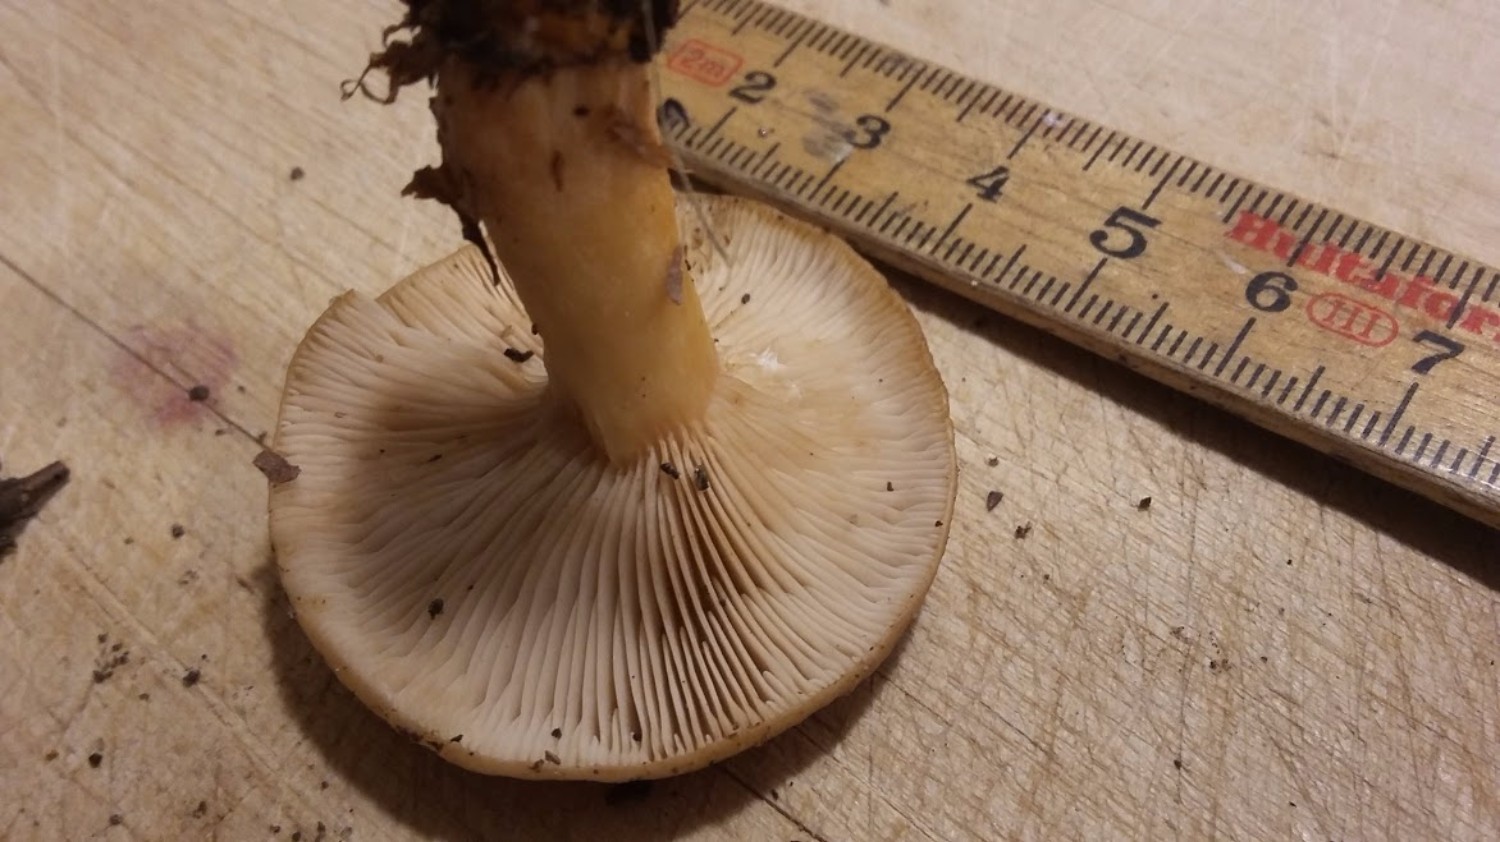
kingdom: Fungi
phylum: Basidiomycota
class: Agaricomycetes
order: Russulales
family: Russulaceae
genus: Lactarius
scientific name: Lactarius subdulcis
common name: sødlig mælkehat
